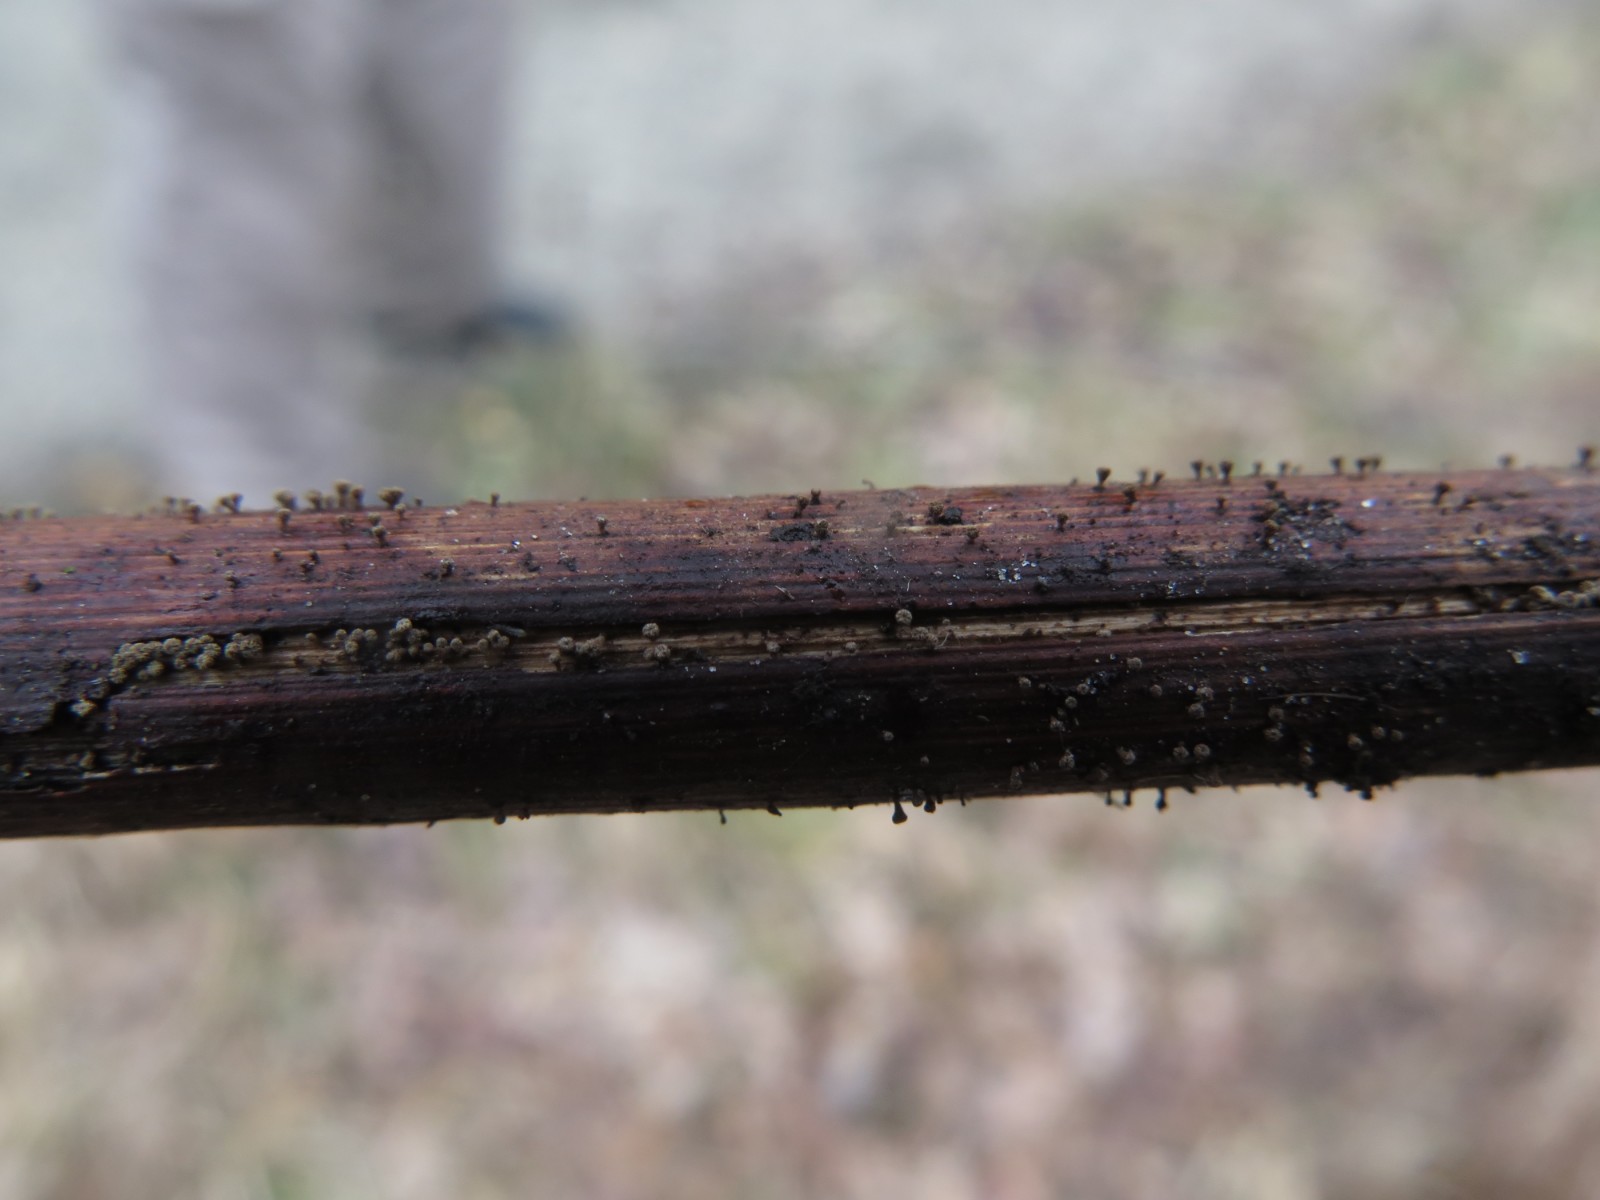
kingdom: Fungi
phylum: Ascomycota
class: Leotiomycetes
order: Helotiales
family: Lachnaceae
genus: Brunnipila
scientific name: Brunnipila clandestina
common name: hindbær-frynseskive
